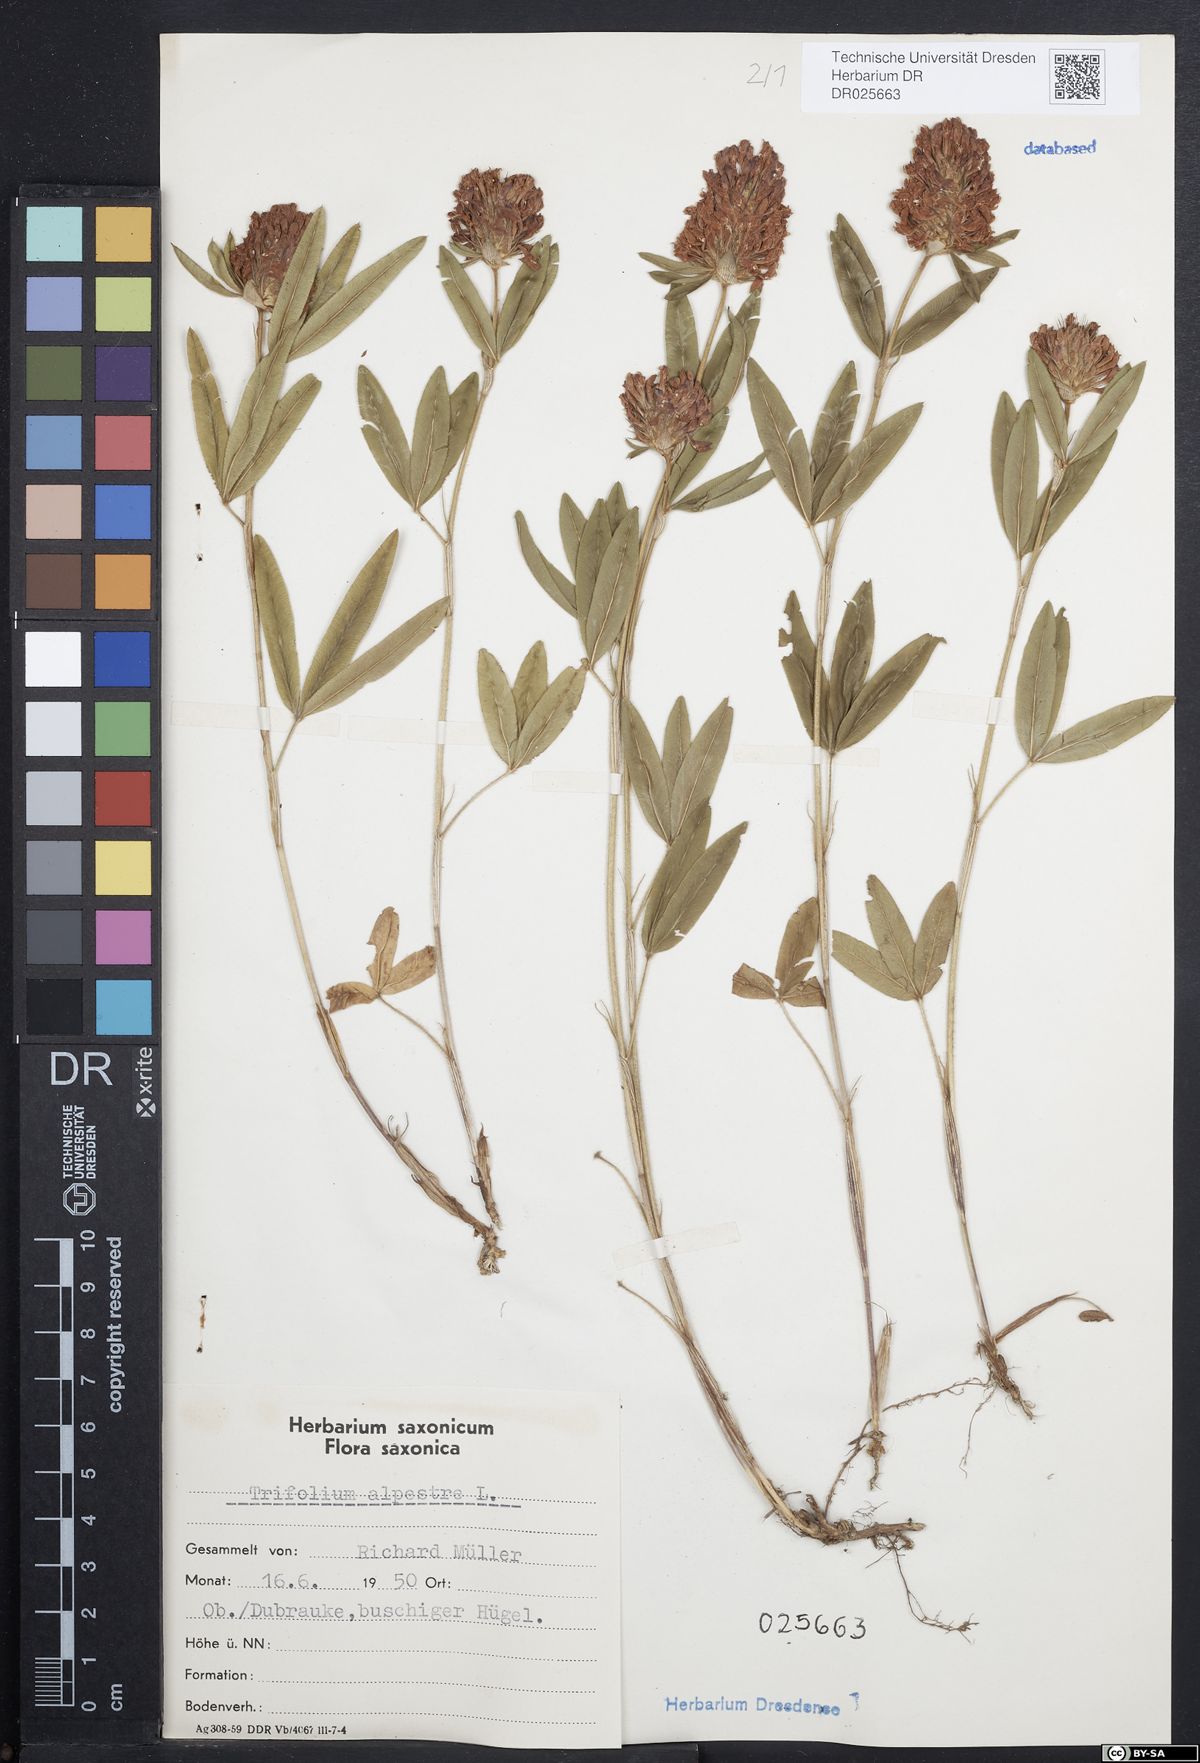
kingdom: Plantae
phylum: Tracheophyta
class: Magnoliopsida
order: Fabales
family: Fabaceae
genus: Trifolium
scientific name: Trifolium alpestre
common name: Owl-head clover
